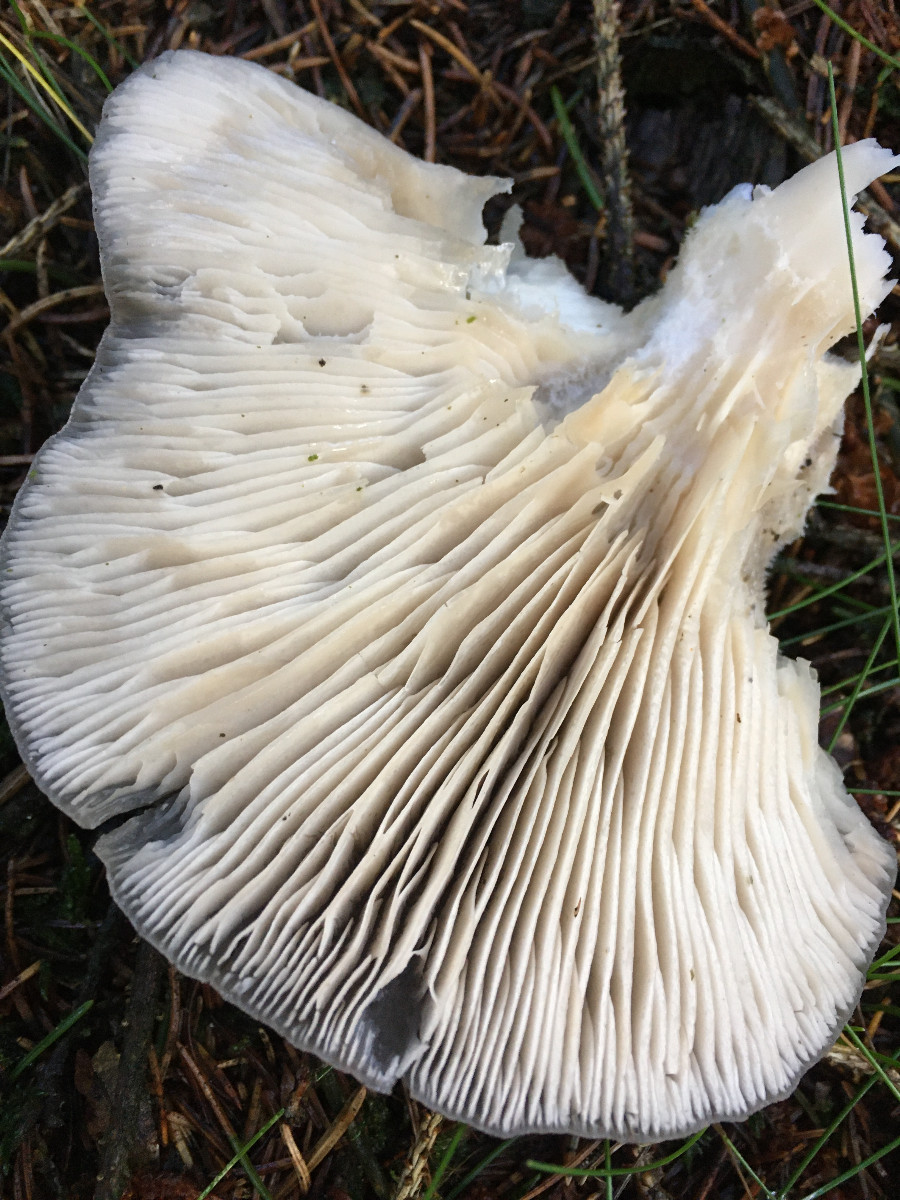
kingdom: Fungi
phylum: Basidiomycota
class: Agaricomycetes
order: Agaricales
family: Pleurotaceae
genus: Pleurotus
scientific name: Pleurotus ostreatus
